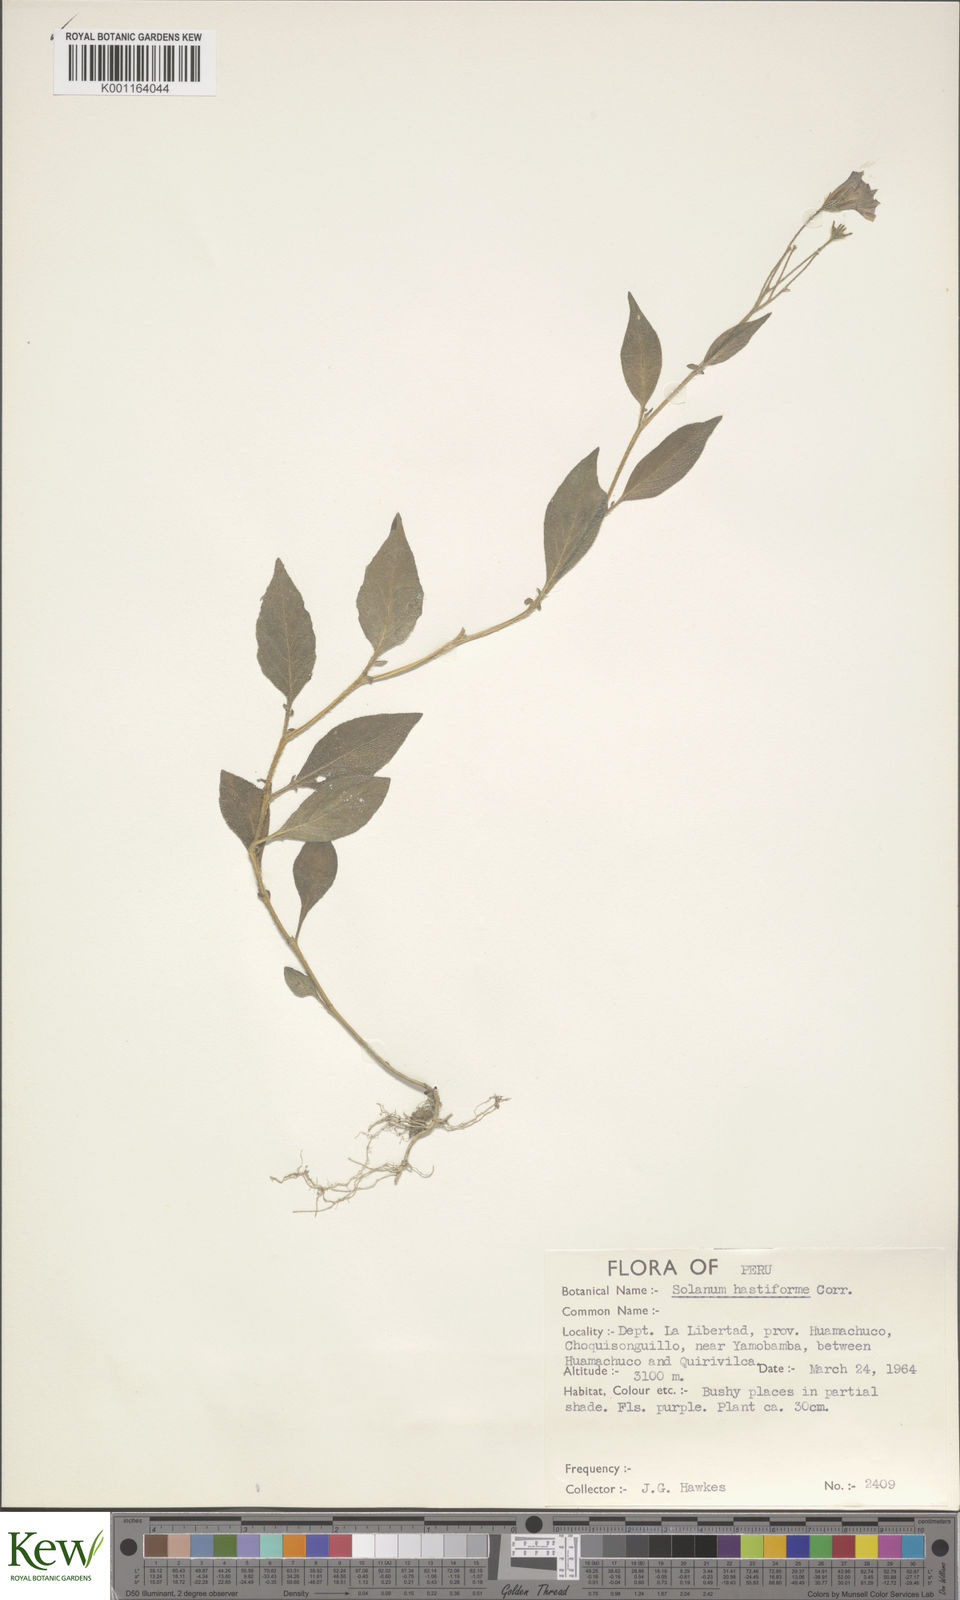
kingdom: Plantae
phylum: Tracheophyta
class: Magnoliopsida
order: Solanales
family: Solanaceae
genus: Solanum
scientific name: Solanum hastiforme
